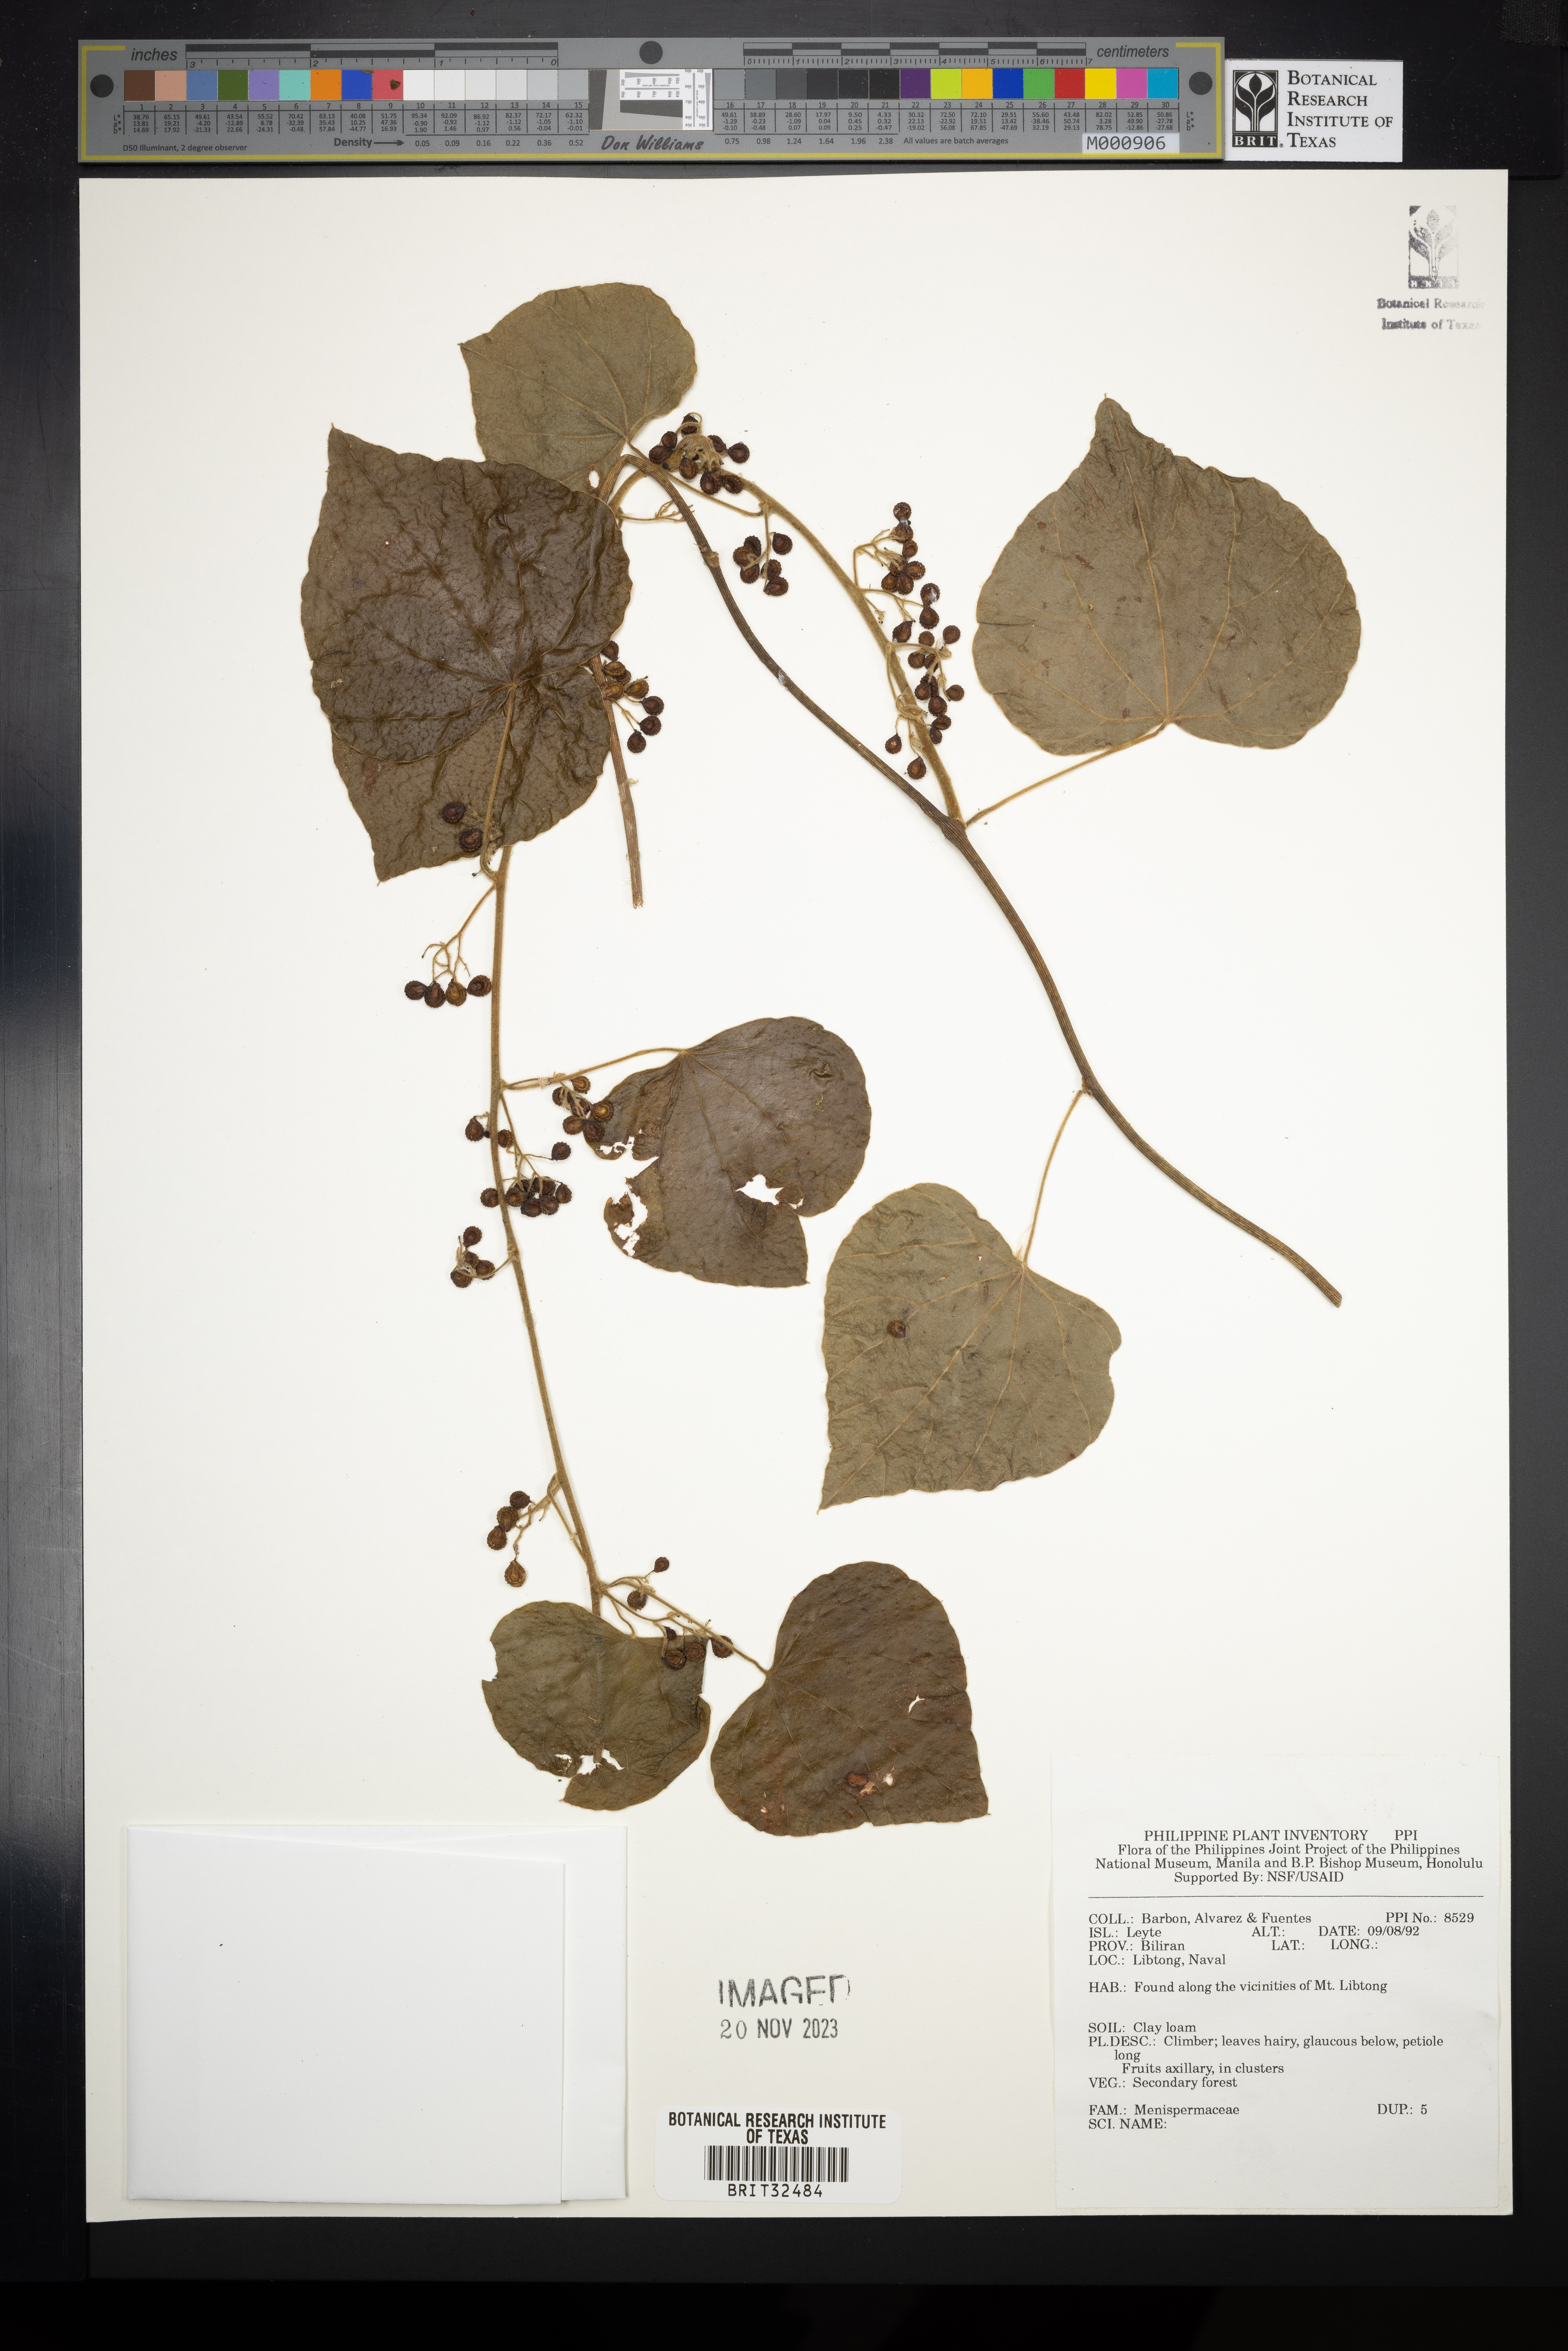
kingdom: Plantae
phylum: Tracheophyta
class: Magnoliopsida
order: Ranunculales
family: Menispermaceae
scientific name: Menispermaceae
